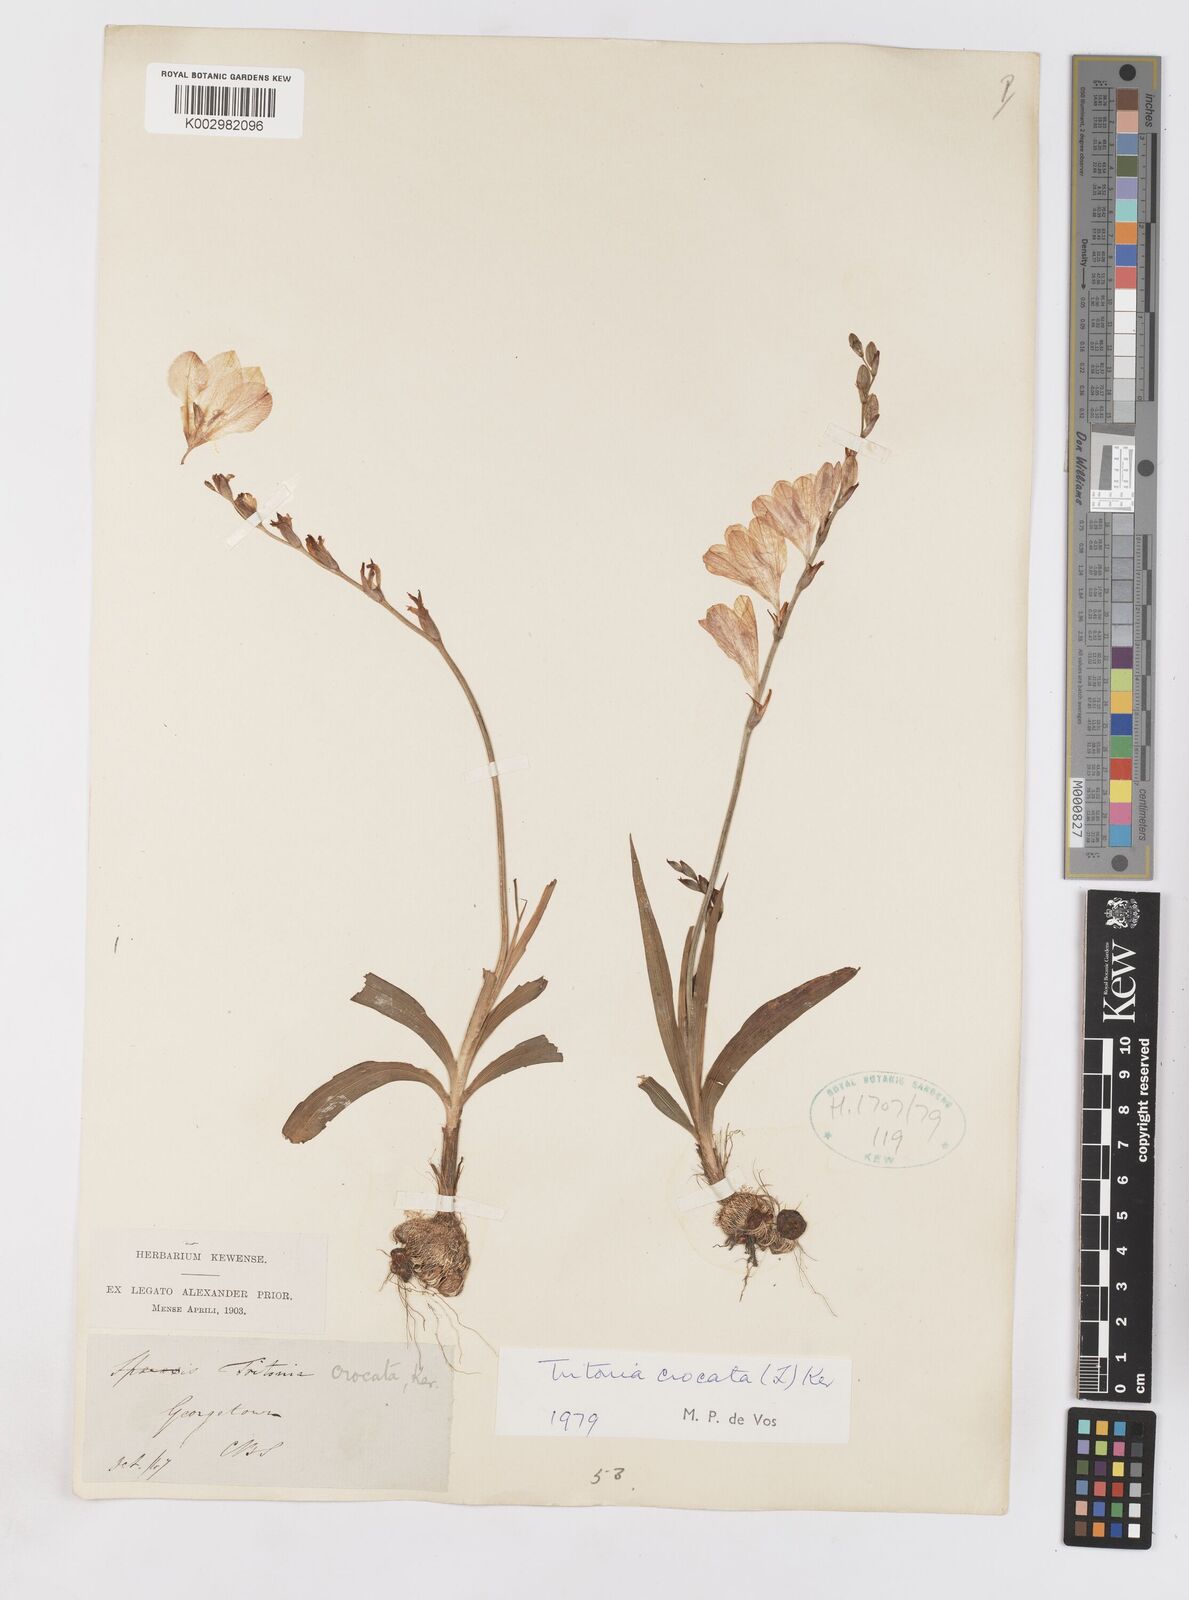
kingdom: Plantae
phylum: Tracheophyta
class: Liliopsida
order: Asparagales
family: Iridaceae
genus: Tritonia
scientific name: Tritonia crocata
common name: Flame-freesia
